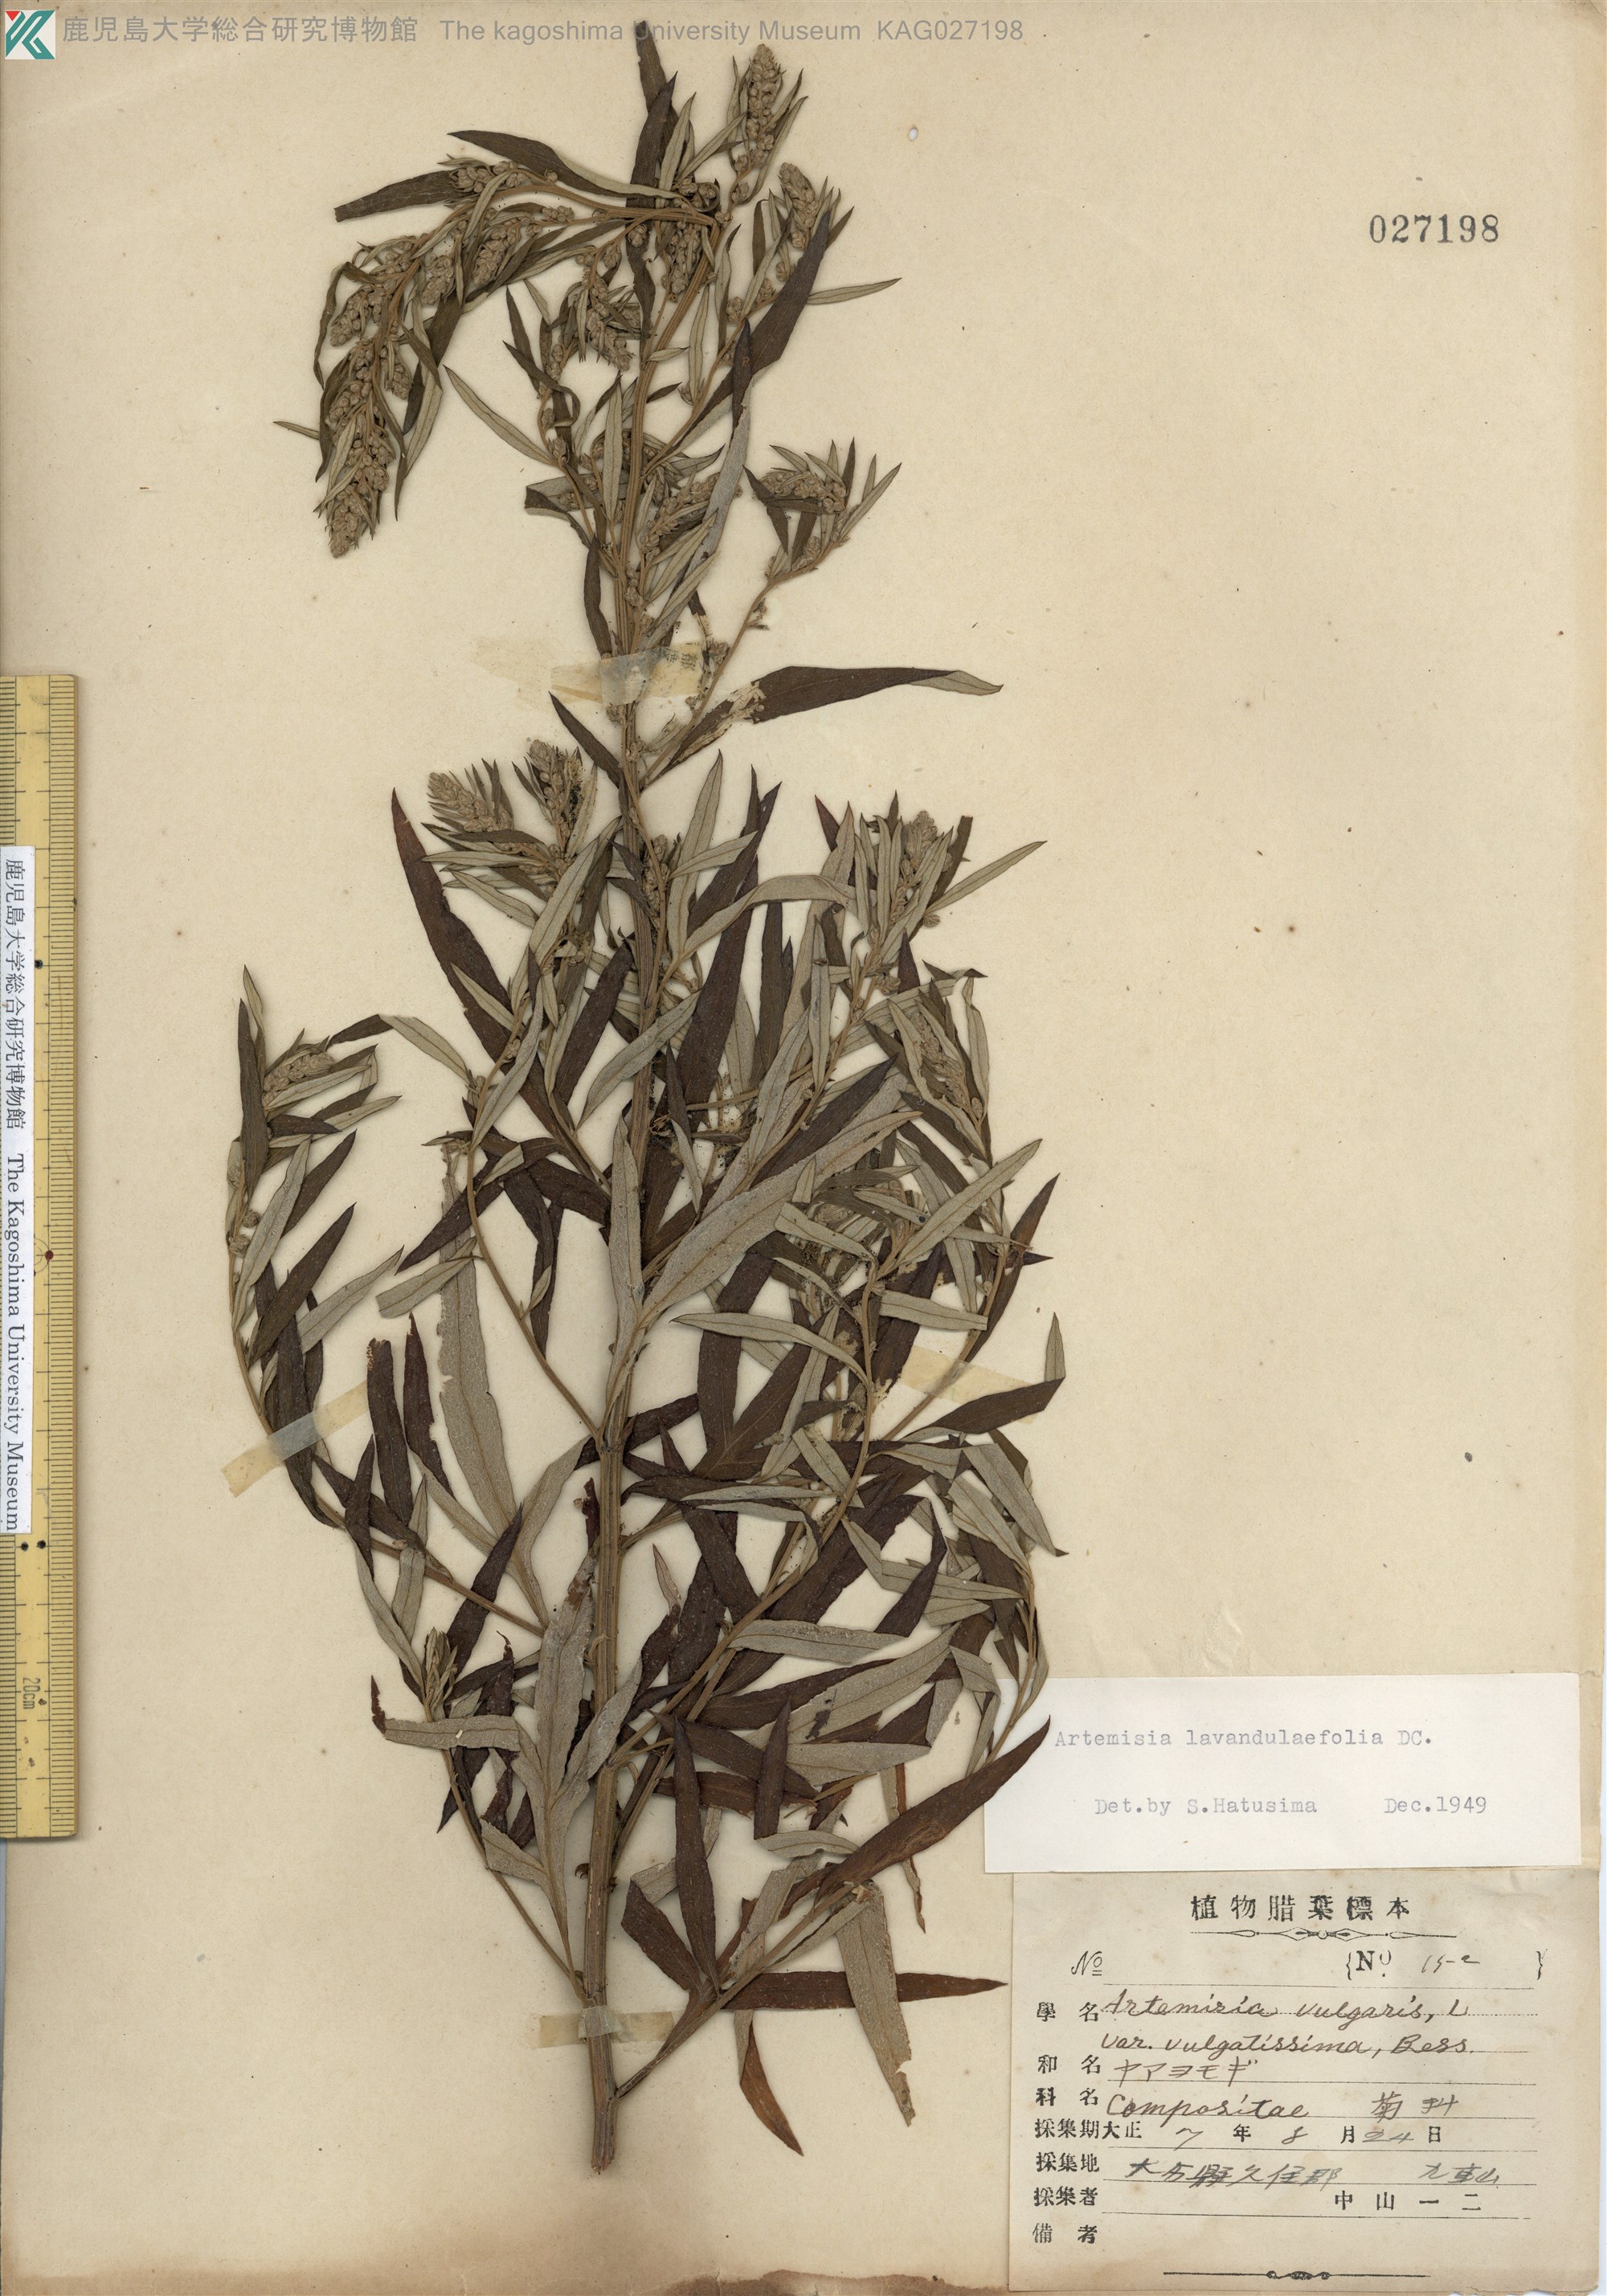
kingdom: Plantae
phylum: Tracheophyta
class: Magnoliopsida
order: Asterales
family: Asteraceae
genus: Artemisia
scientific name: Artemisia umbrosa
